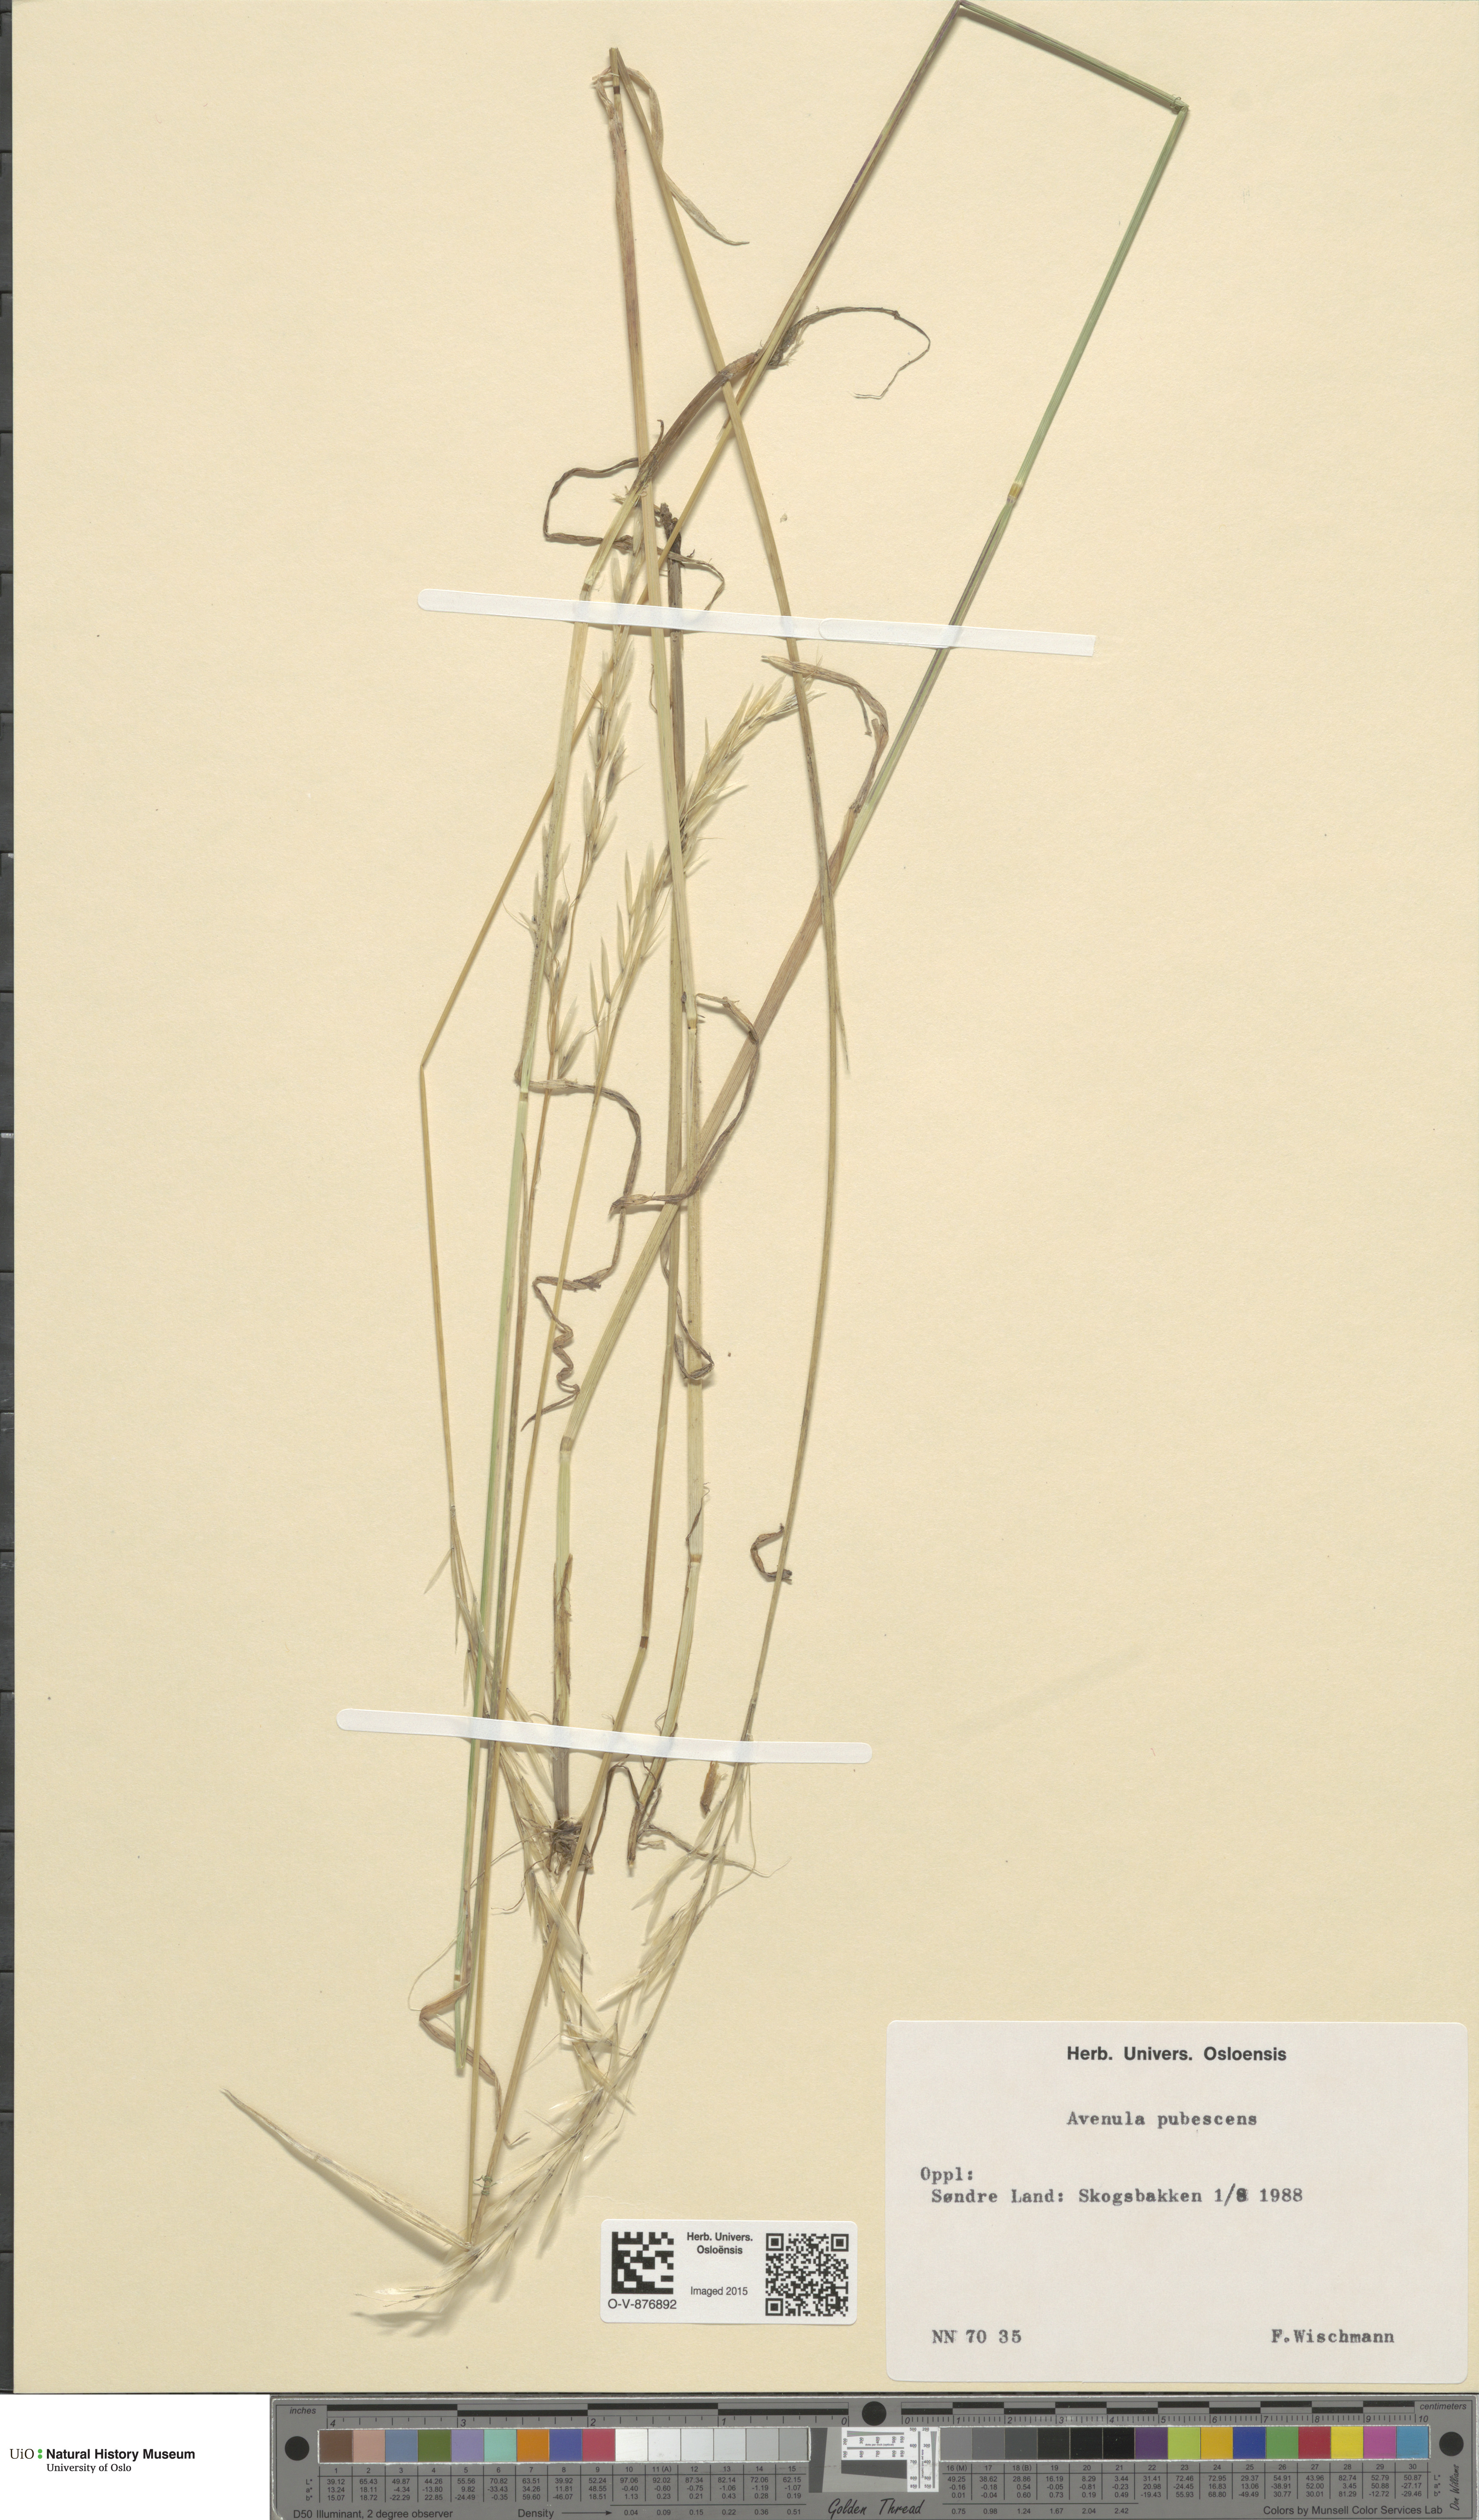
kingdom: Plantae
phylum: Tracheophyta
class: Liliopsida
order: Poales
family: Poaceae
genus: Avenula
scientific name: Avenula pubescens
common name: Downy alpine oatgrass
